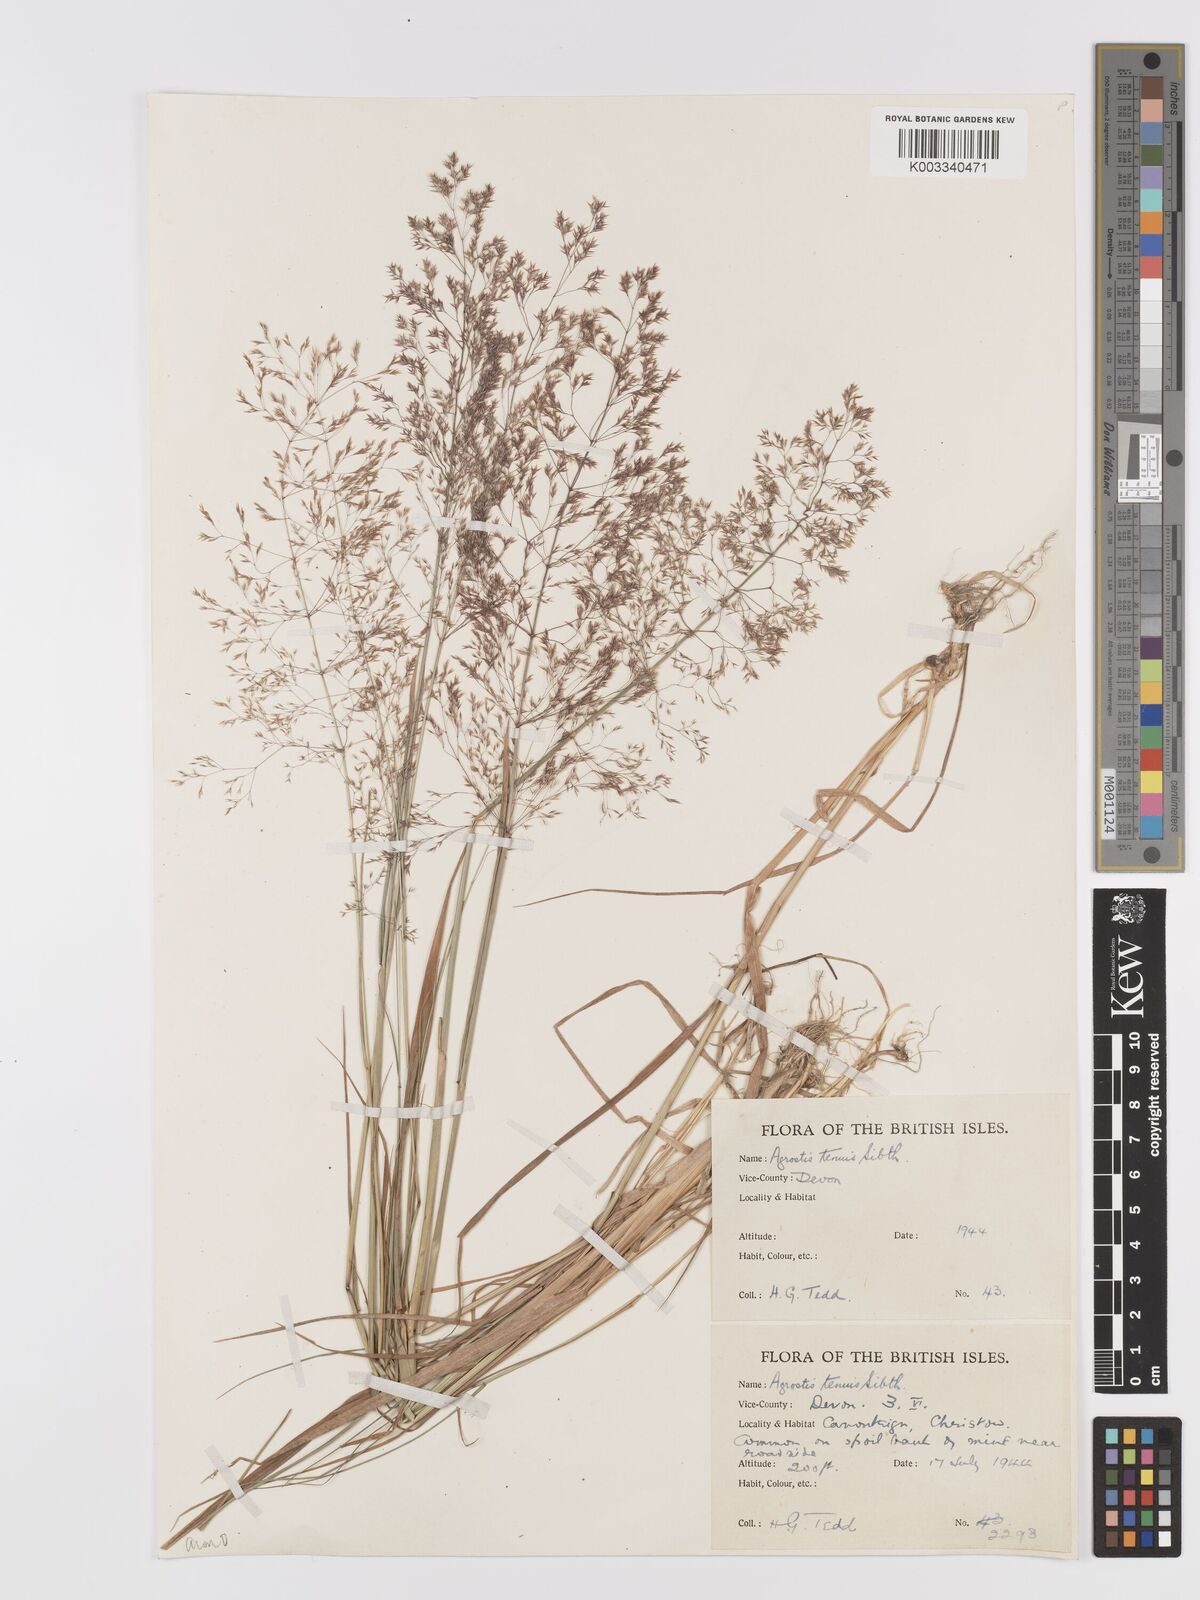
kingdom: Plantae
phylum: Tracheophyta
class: Liliopsida
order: Poales
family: Poaceae
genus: Agrostis
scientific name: Agrostis capillaris
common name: Colonial bentgrass
